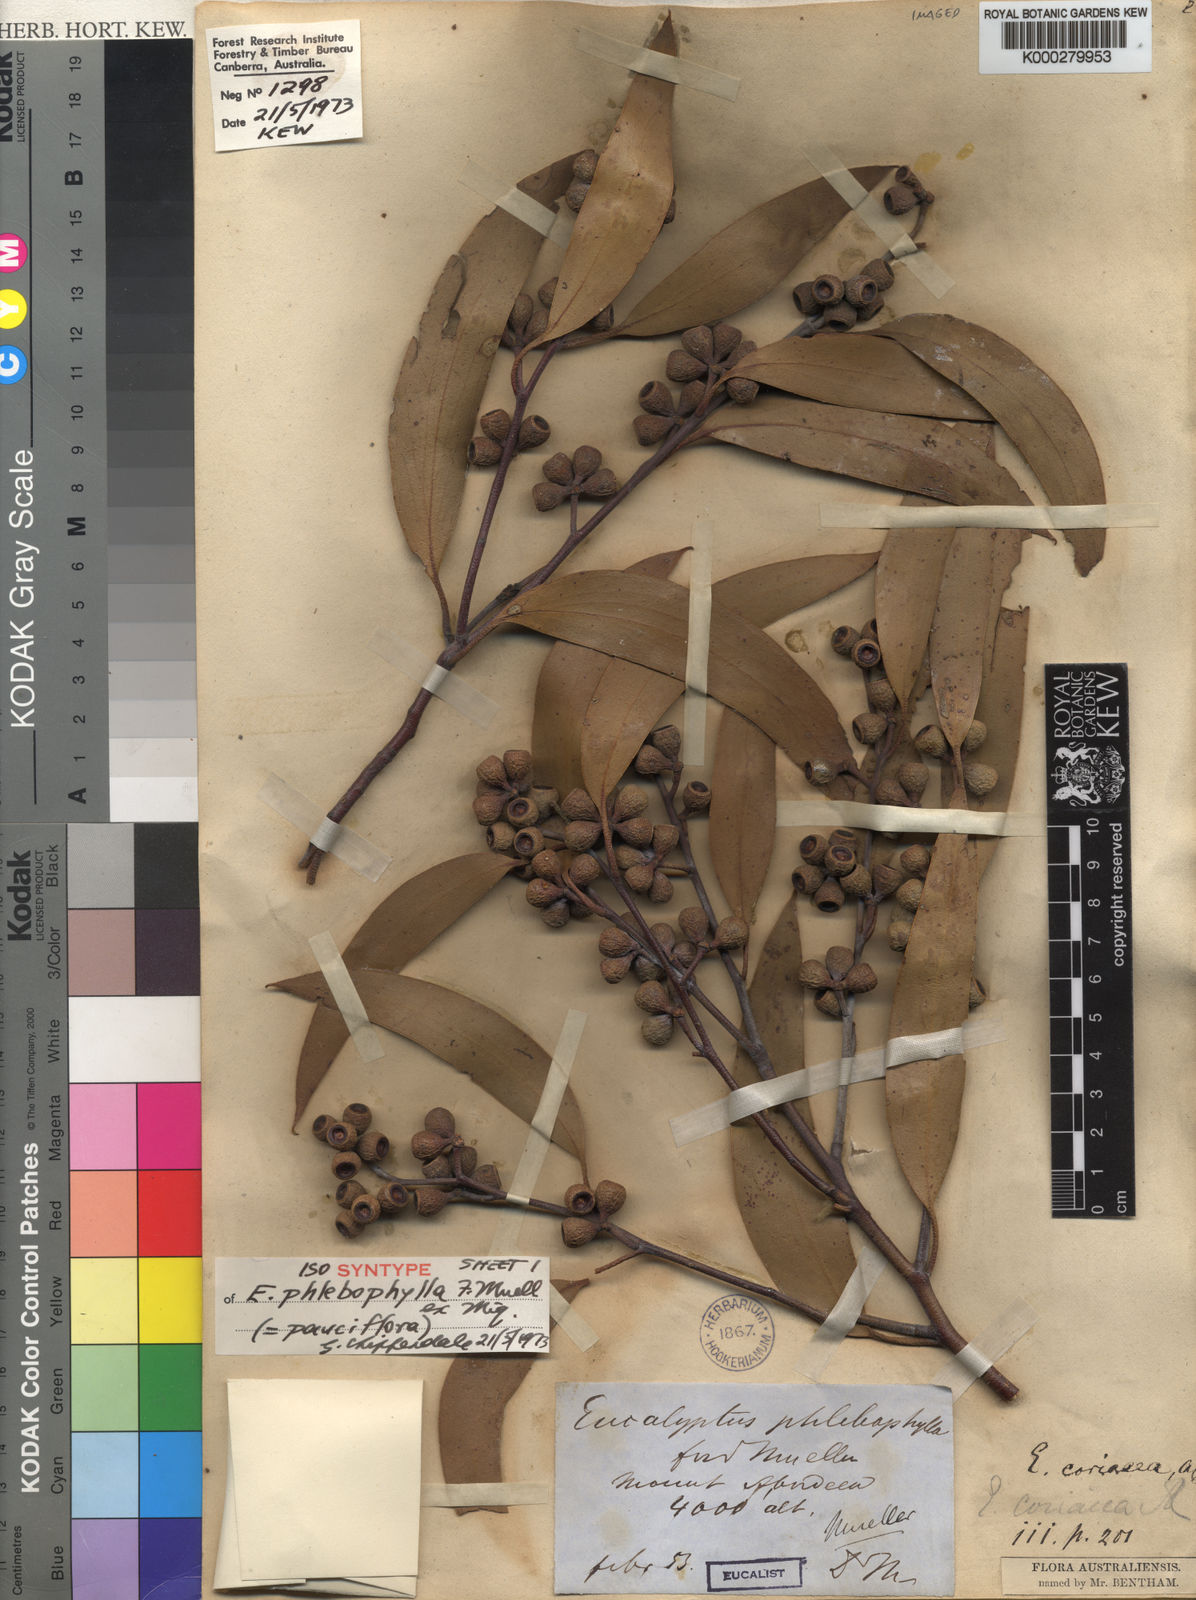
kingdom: Plantae
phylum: Tracheophyta
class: Magnoliopsida
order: Myrtales
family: Myrtaceae
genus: Eucalyptus
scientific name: Eucalyptus pauciflora
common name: Snow gum
